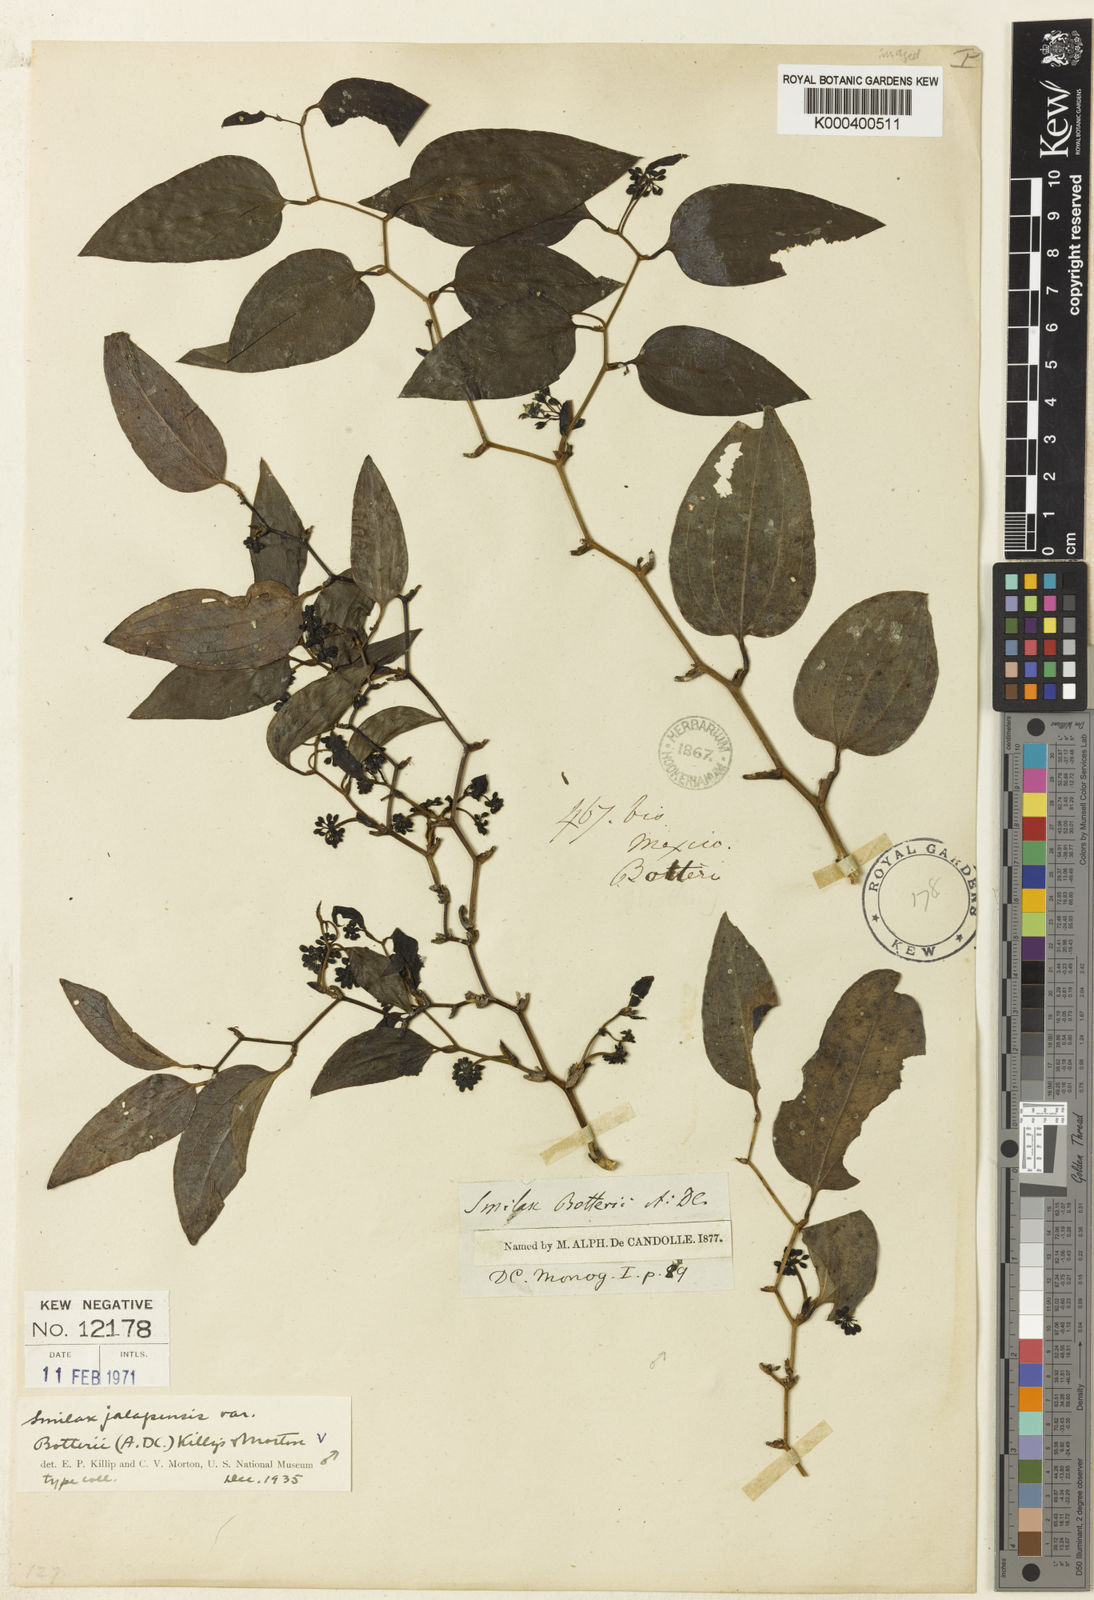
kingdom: Plantae
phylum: Tracheophyta
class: Liliopsida
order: Liliales
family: Smilacaceae
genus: Smilax
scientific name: Smilax moranensis
